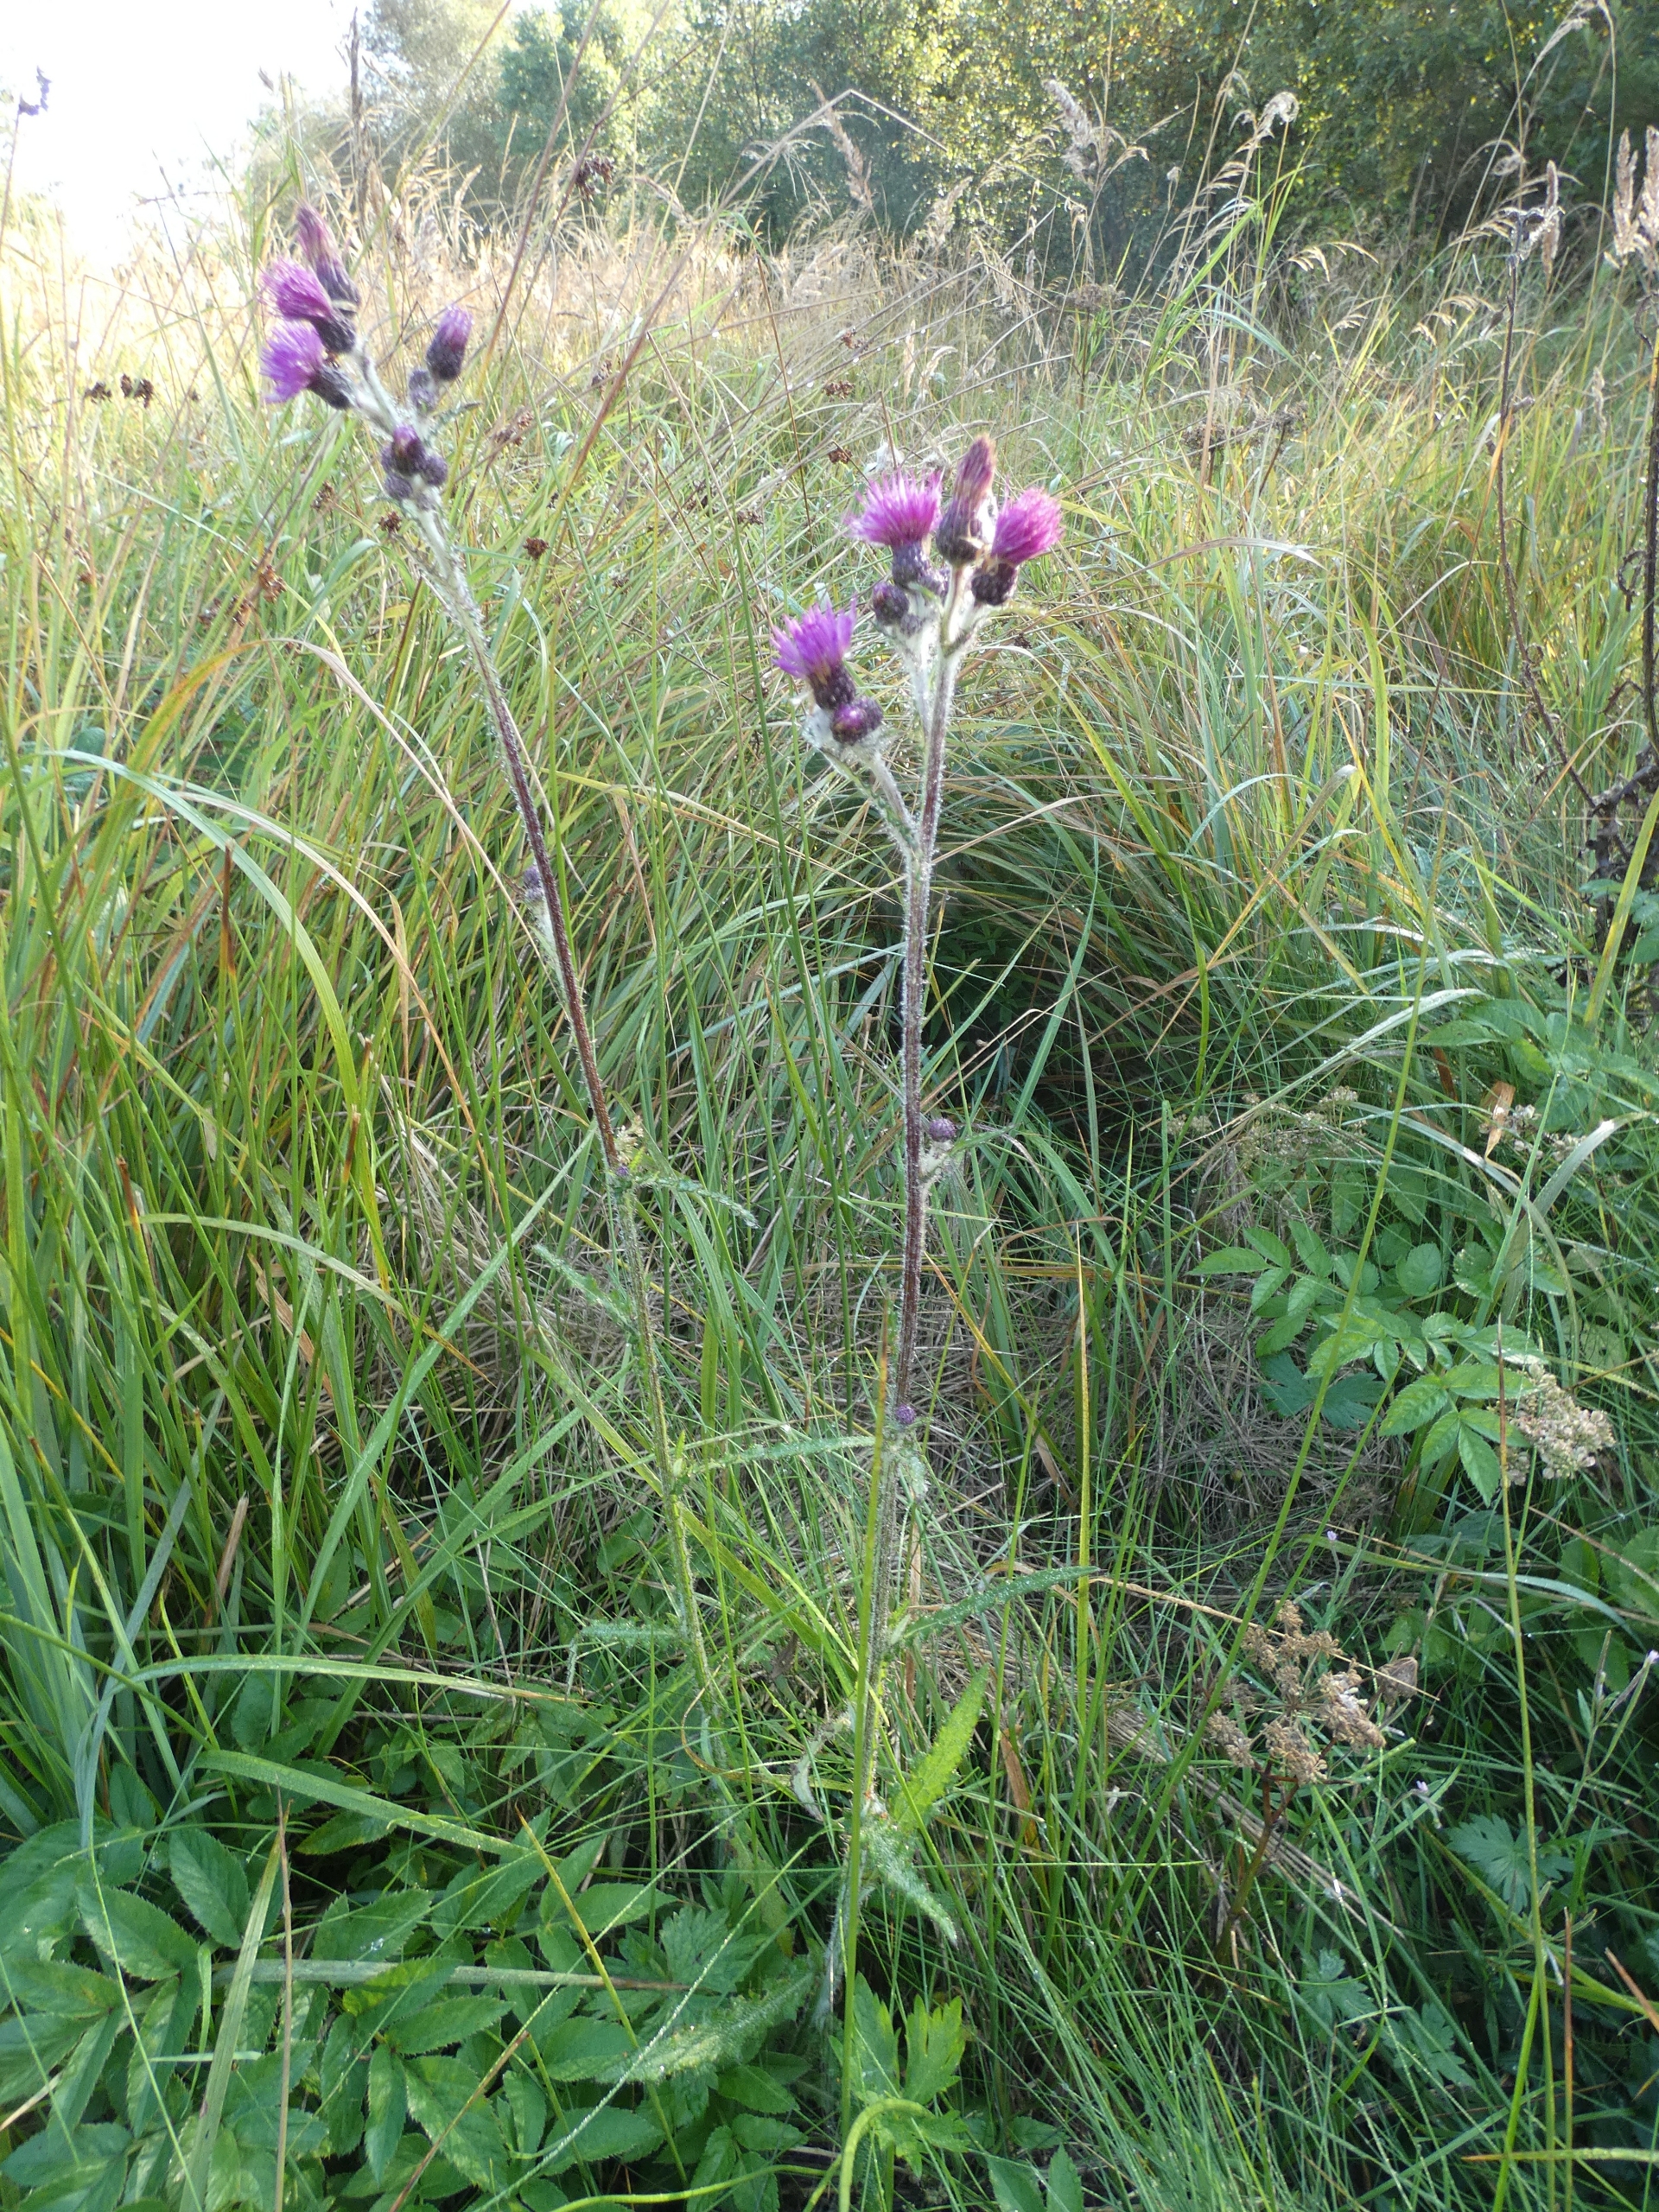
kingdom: Plantae
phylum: Tracheophyta
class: Magnoliopsida
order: Asterales
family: Asteraceae
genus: Cirsium
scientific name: Cirsium palustre
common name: Kær-tidsel
